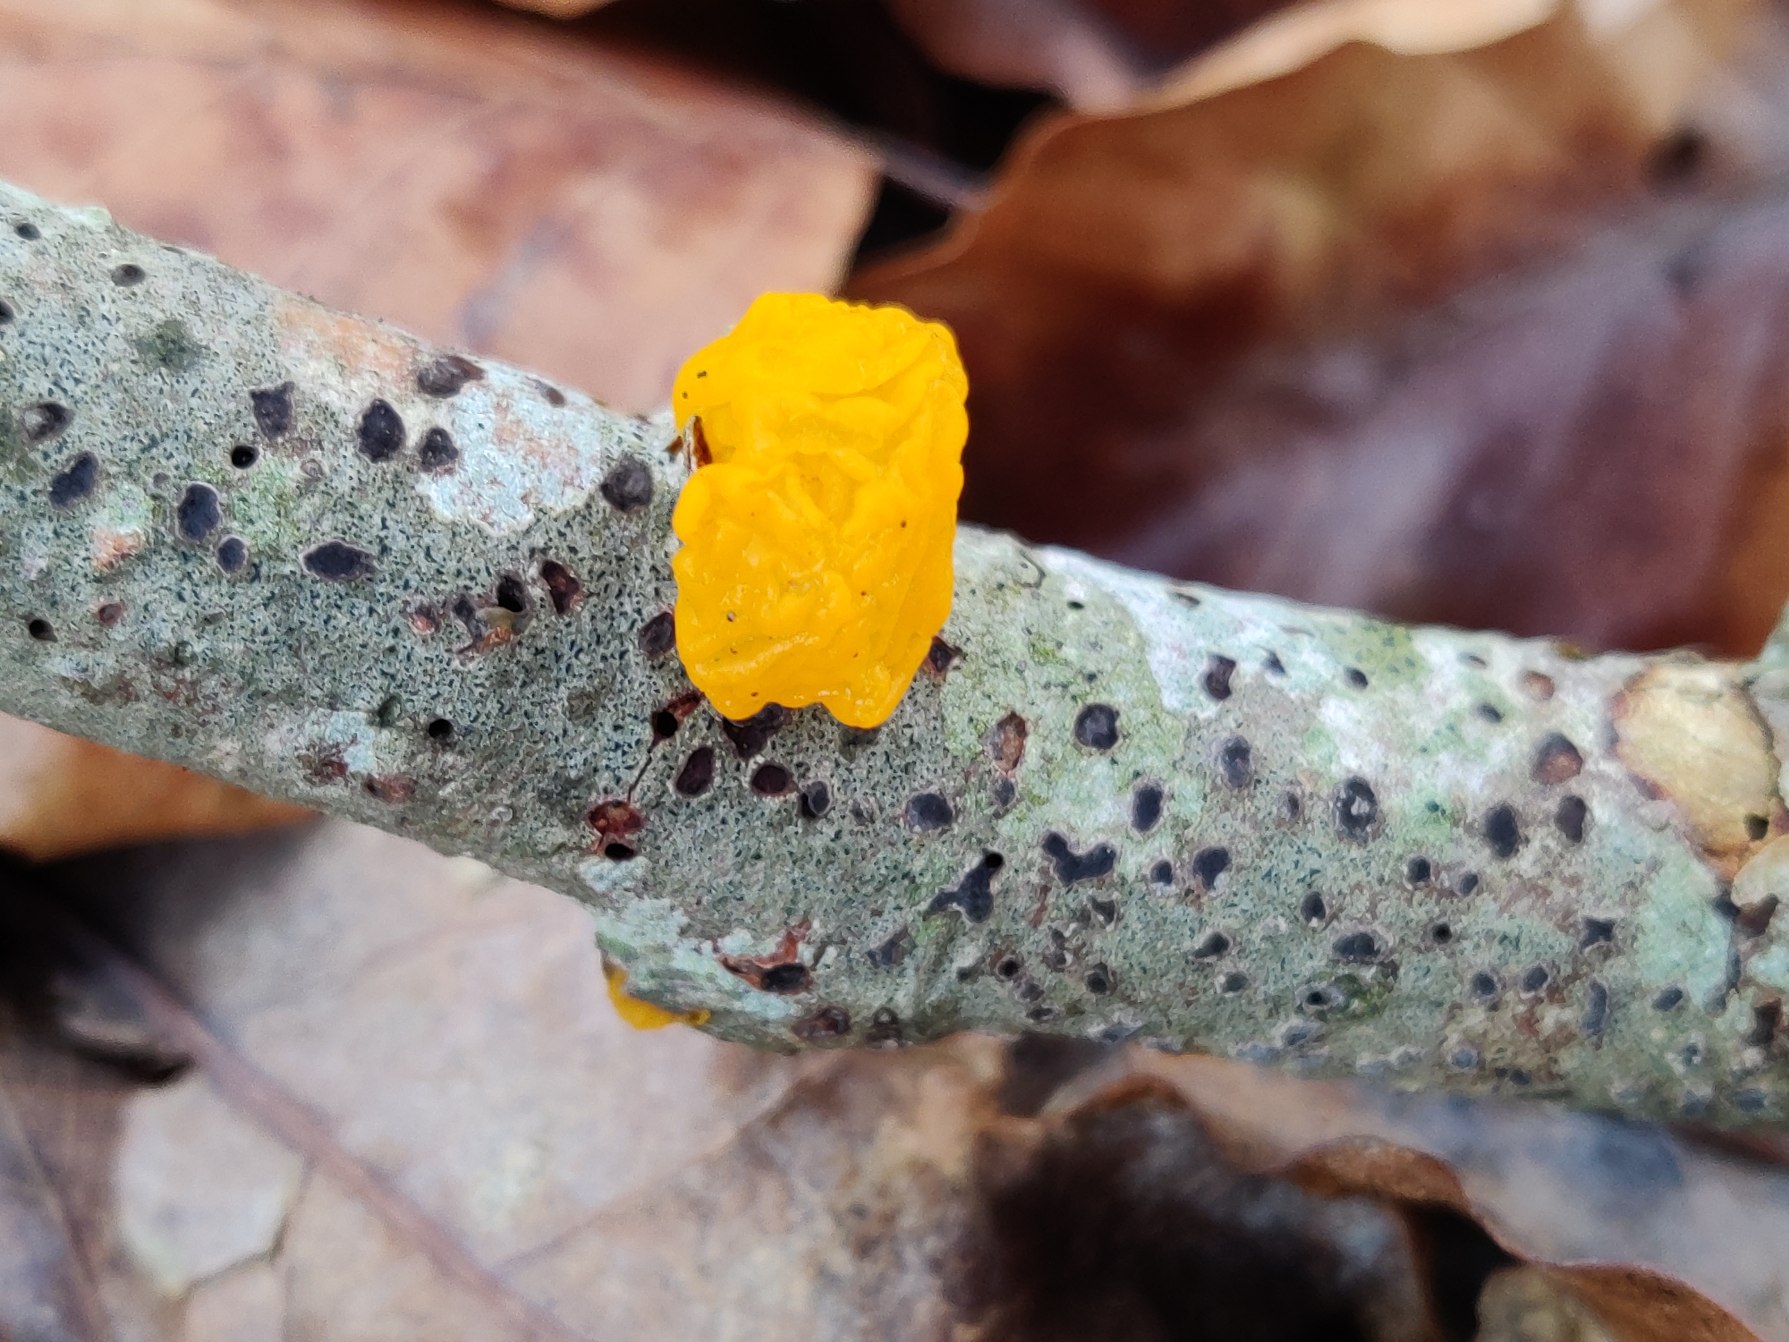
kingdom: Fungi
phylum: Basidiomycota
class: Tremellomycetes
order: Tremellales
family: Tremellaceae
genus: Tremella
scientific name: Tremella mesenterica
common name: Gul bævresvamp
